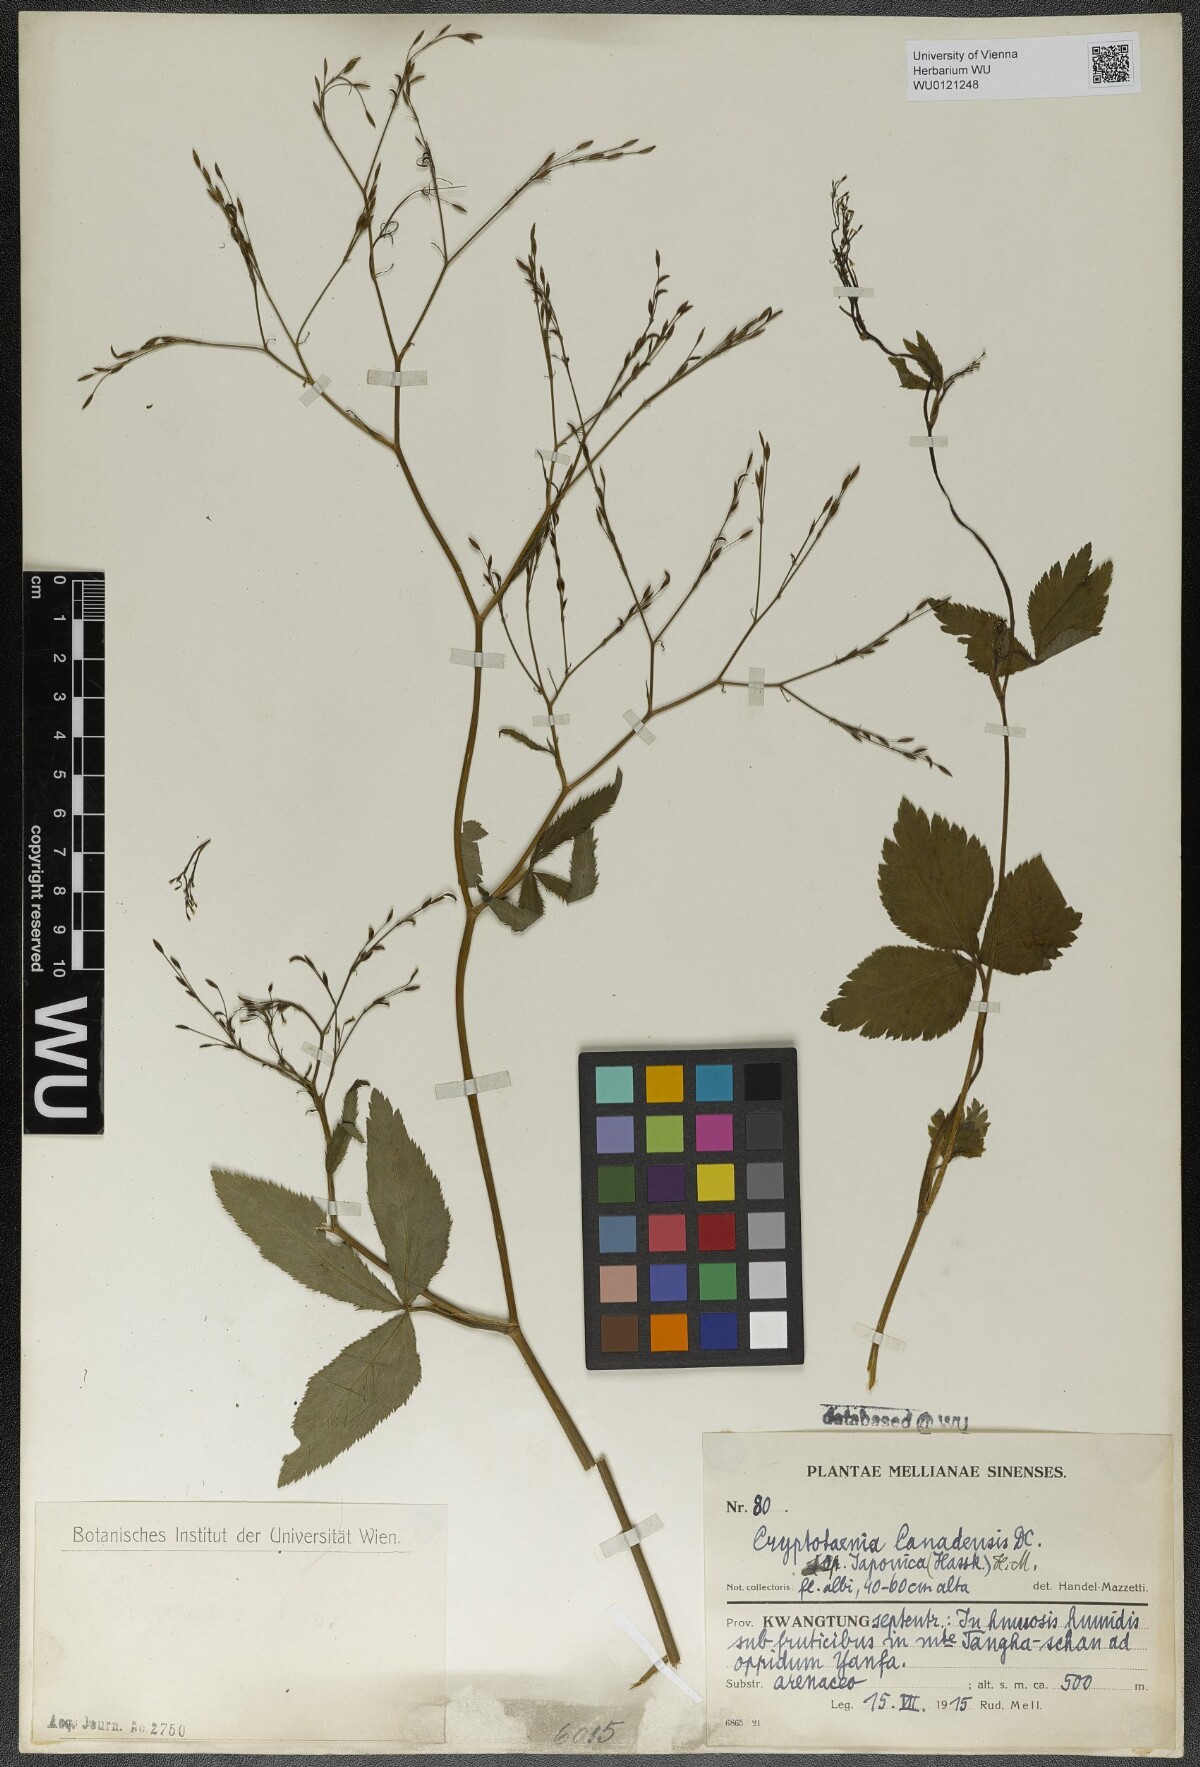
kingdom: Plantae
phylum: Tracheophyta
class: Magnoliopsida
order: Apiales
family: Apiaceae
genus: Cryptotaenia
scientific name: Cryptotaenia japonica
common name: Japanese cryptotaenia
